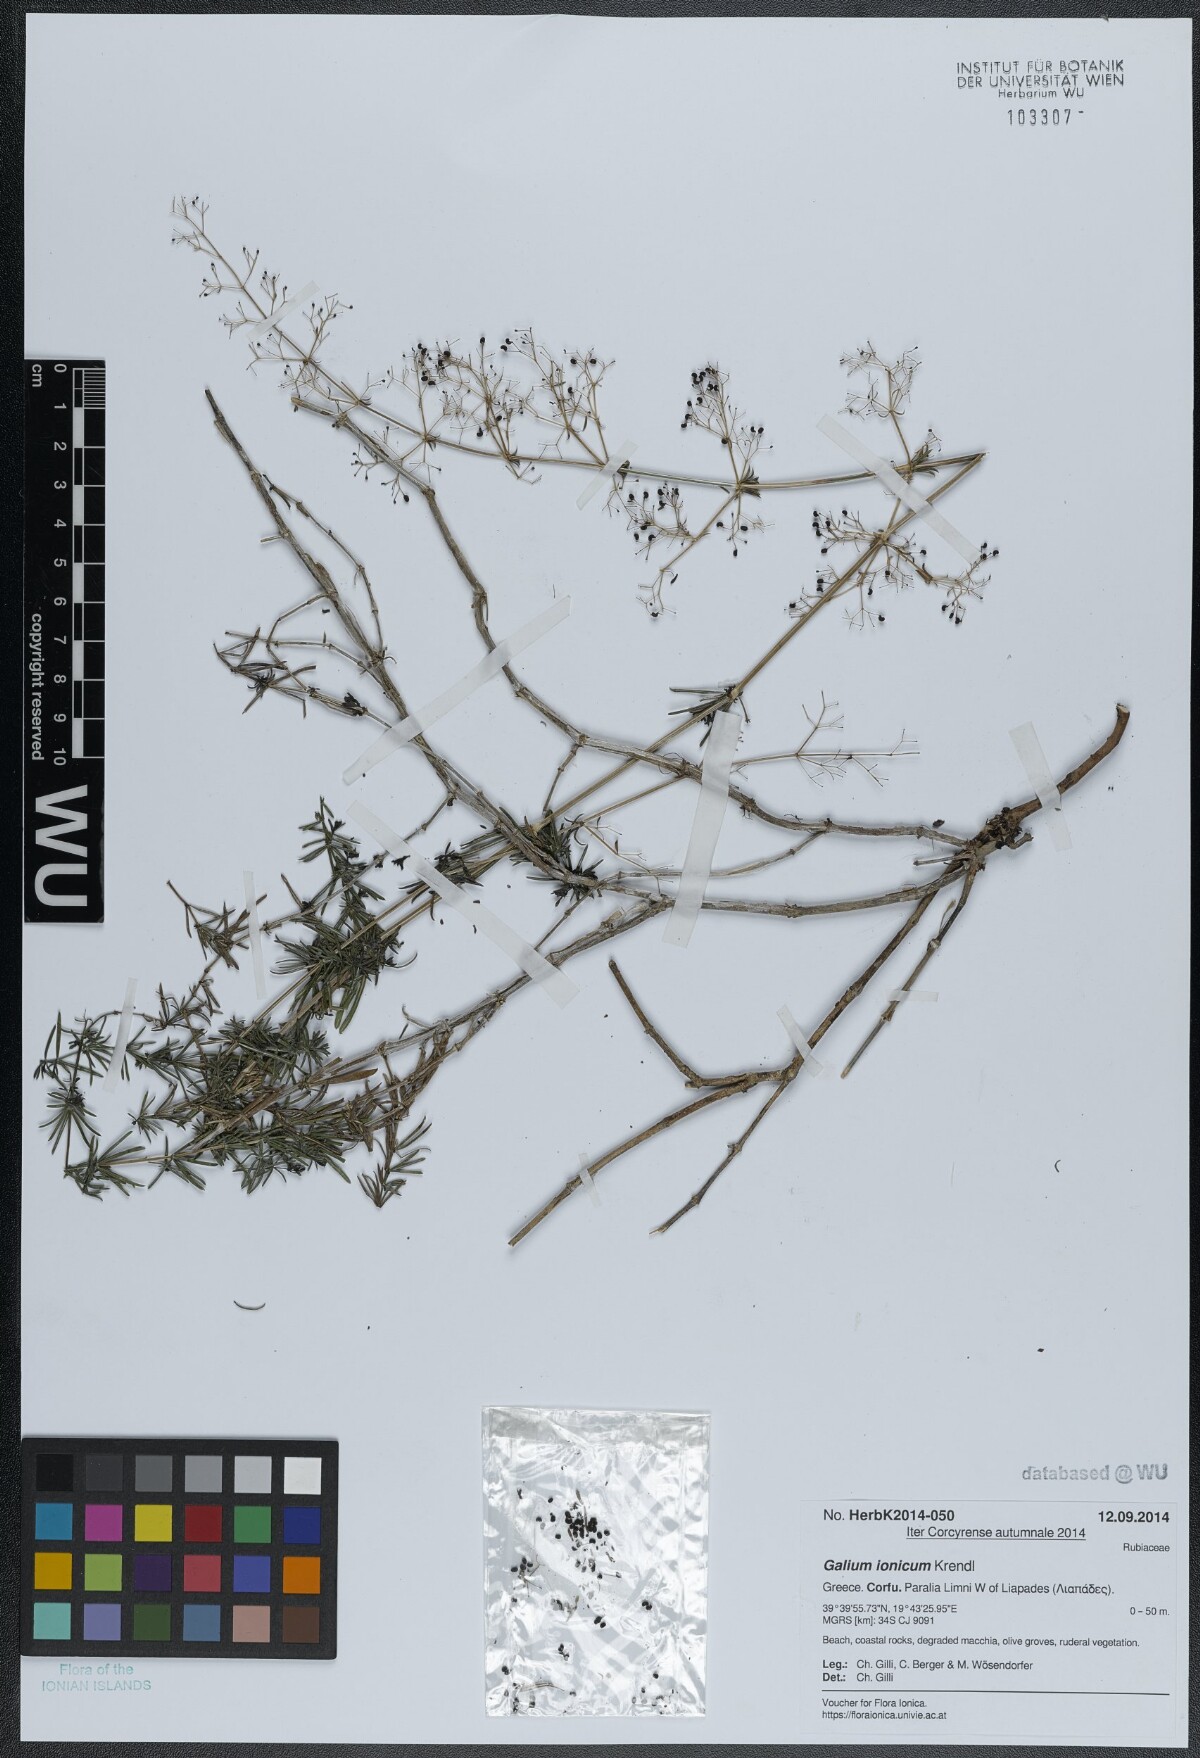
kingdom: Plantae
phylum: Tracheophyta
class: Magnoliopsida
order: Gentianales
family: Rubiaceae
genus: Galium
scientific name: Galium ionicum
